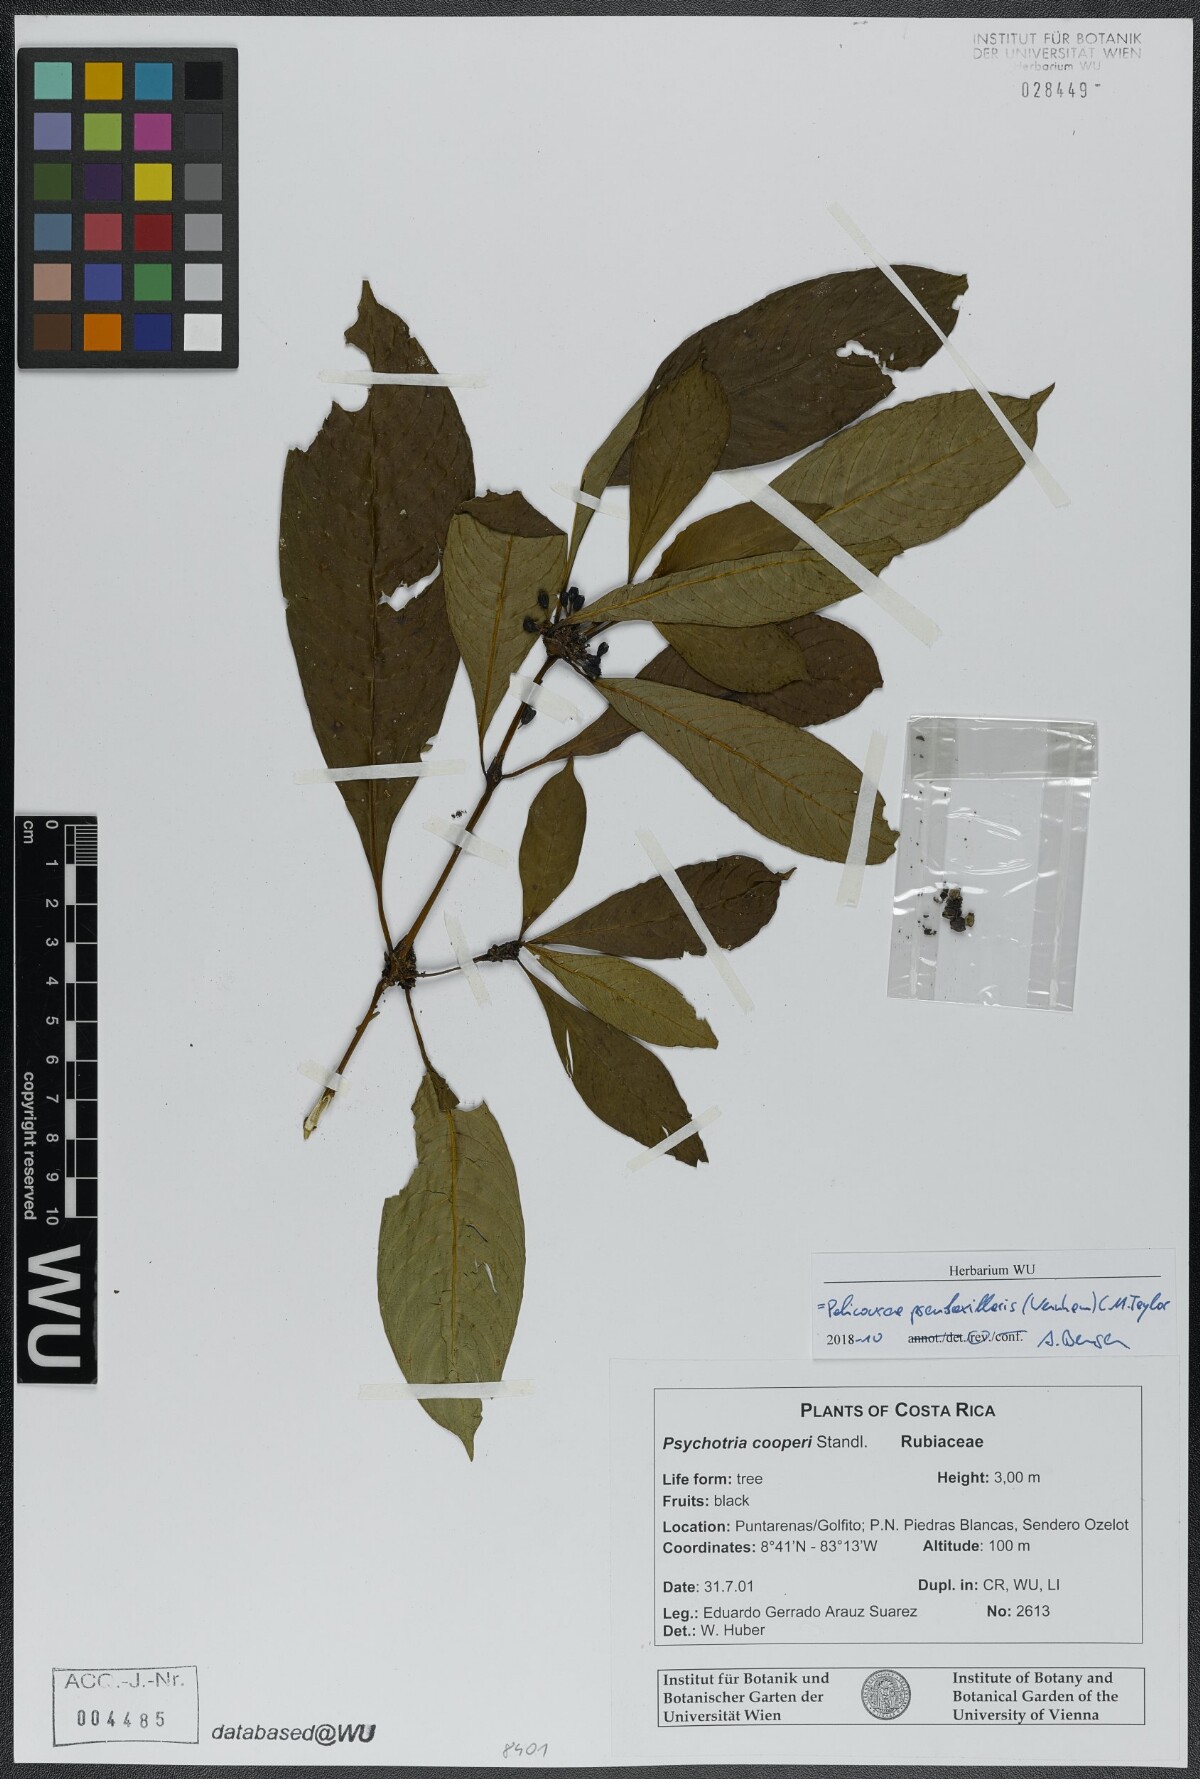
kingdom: Plantae
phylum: Tracheophyta
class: Magnoliopsida
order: Gentianales
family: Rubiaceae
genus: Palicourea
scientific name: Palicourea pseudaxillaris
